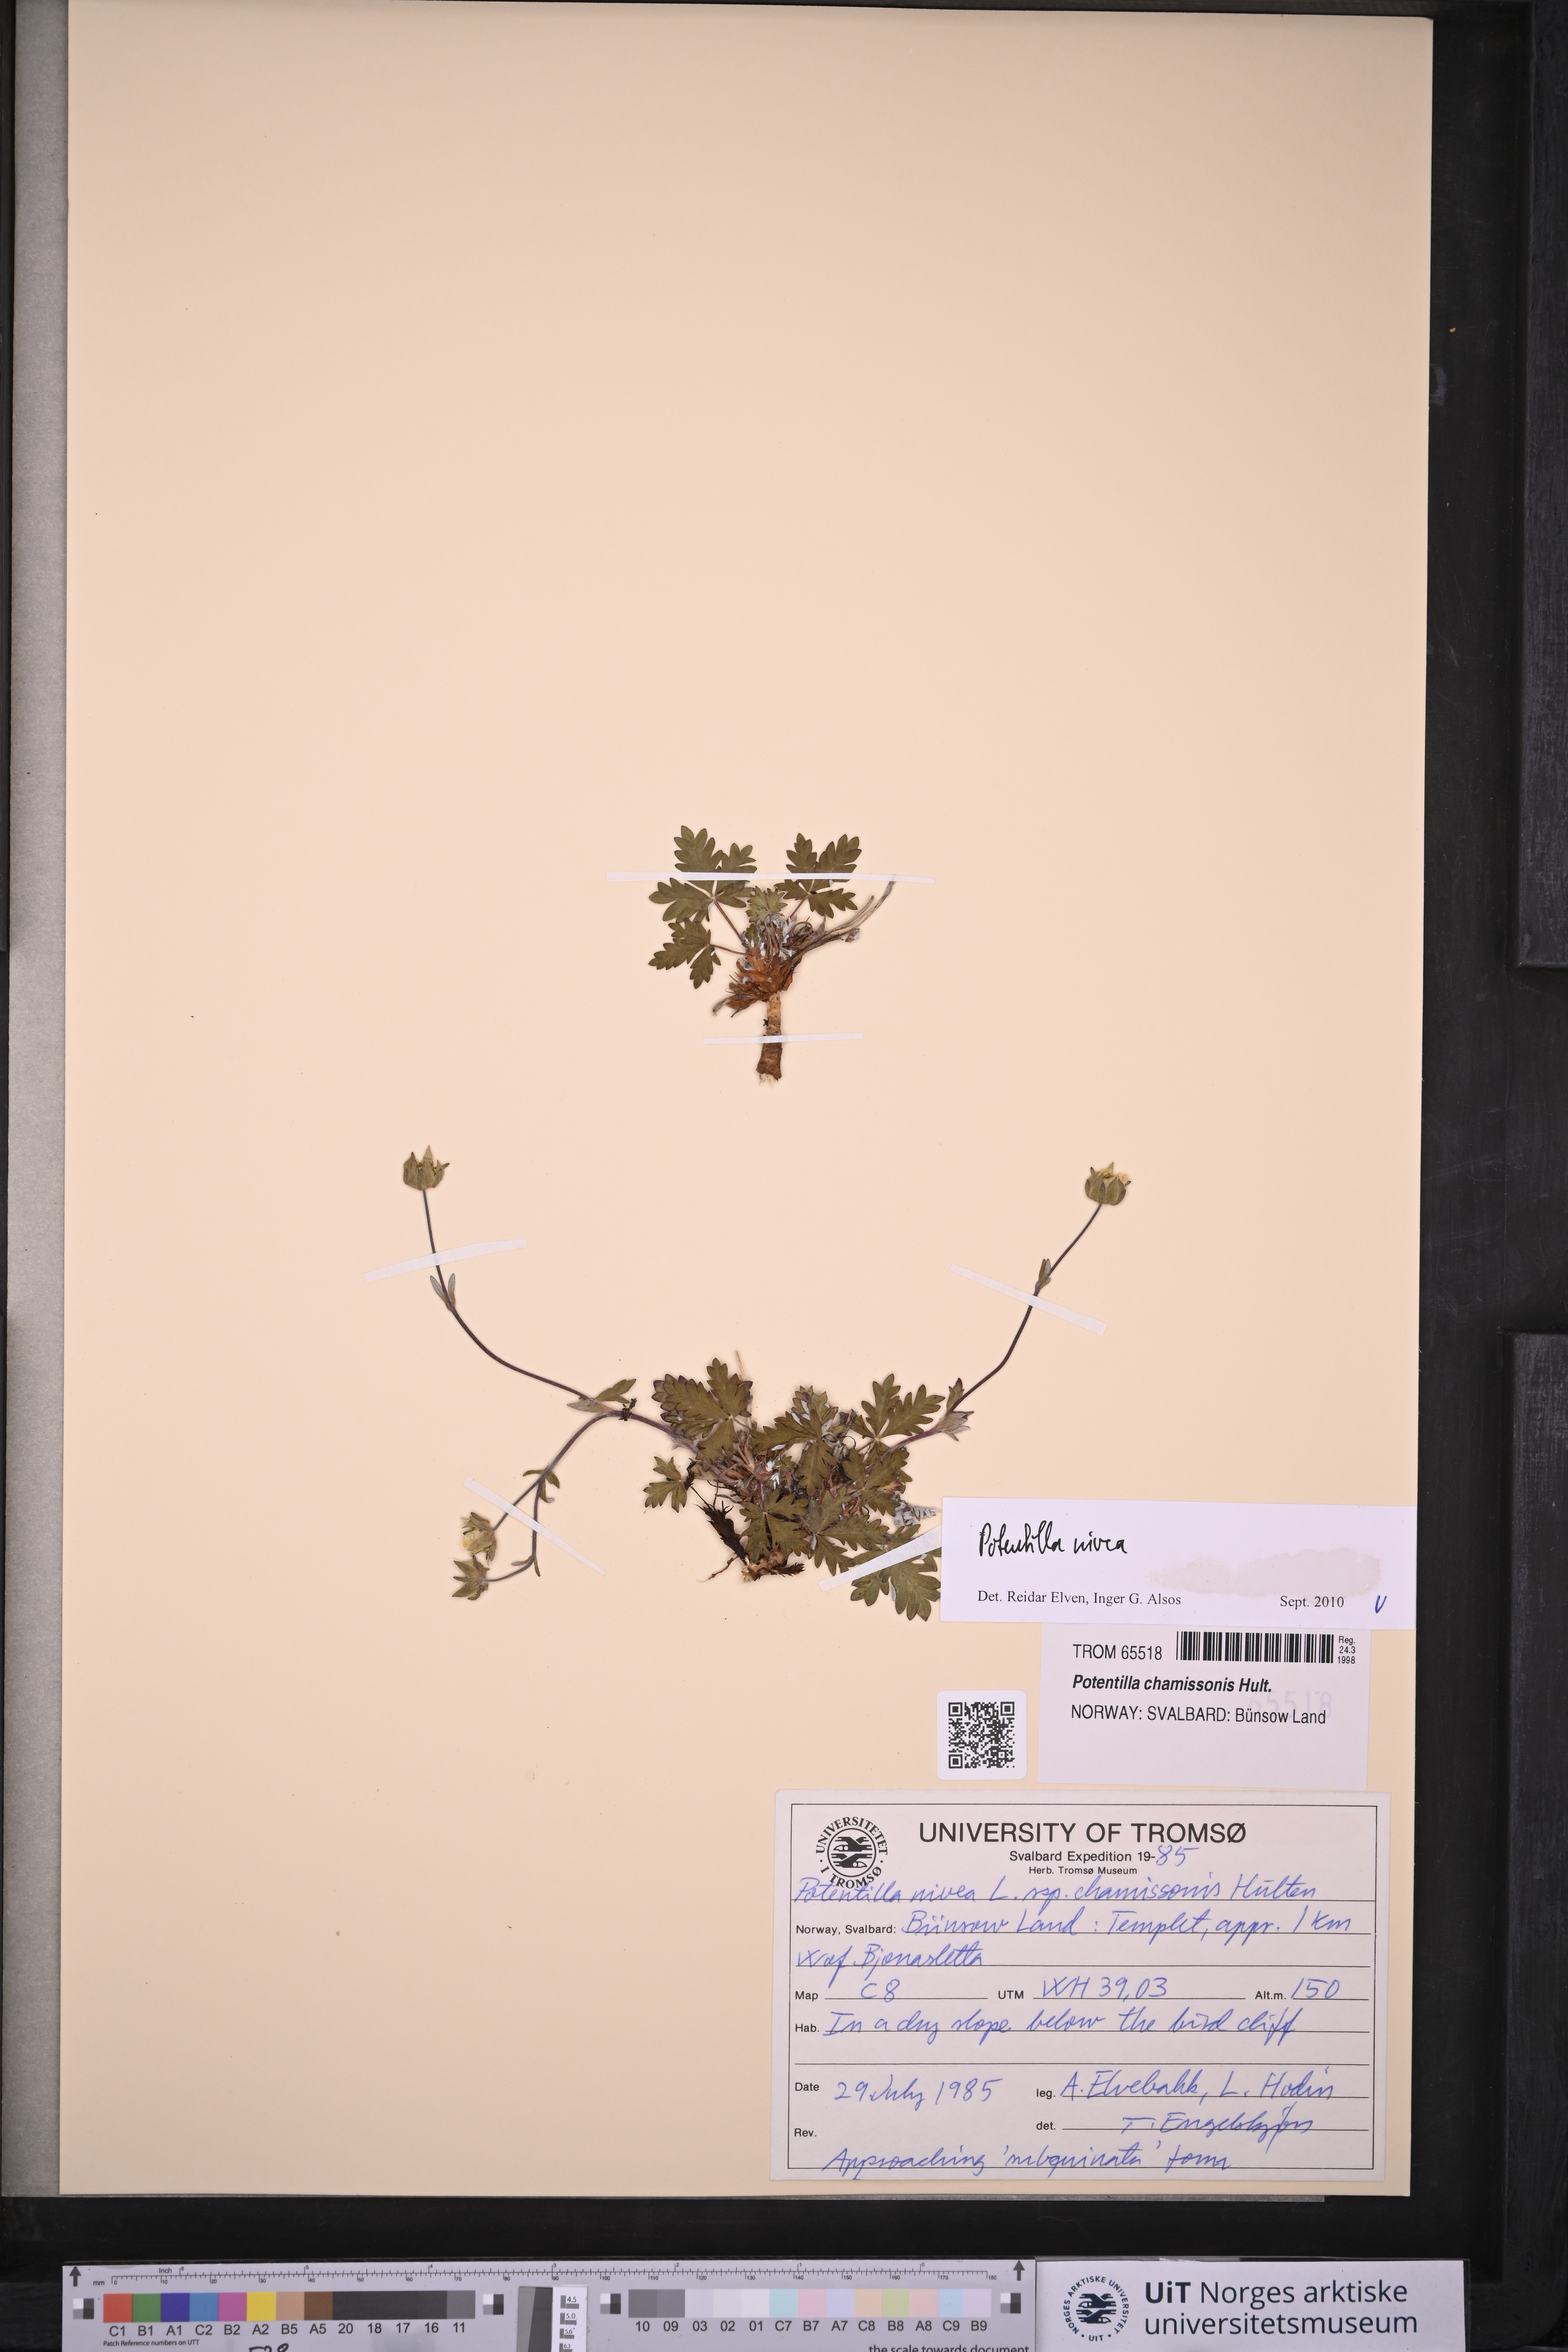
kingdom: Plantae
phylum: Tracheophyta
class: Magnoliopsida
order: Rosales
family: Rosaceae
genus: Potentilla
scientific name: Potentilla arenosa
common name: Bluff cinquefoil
